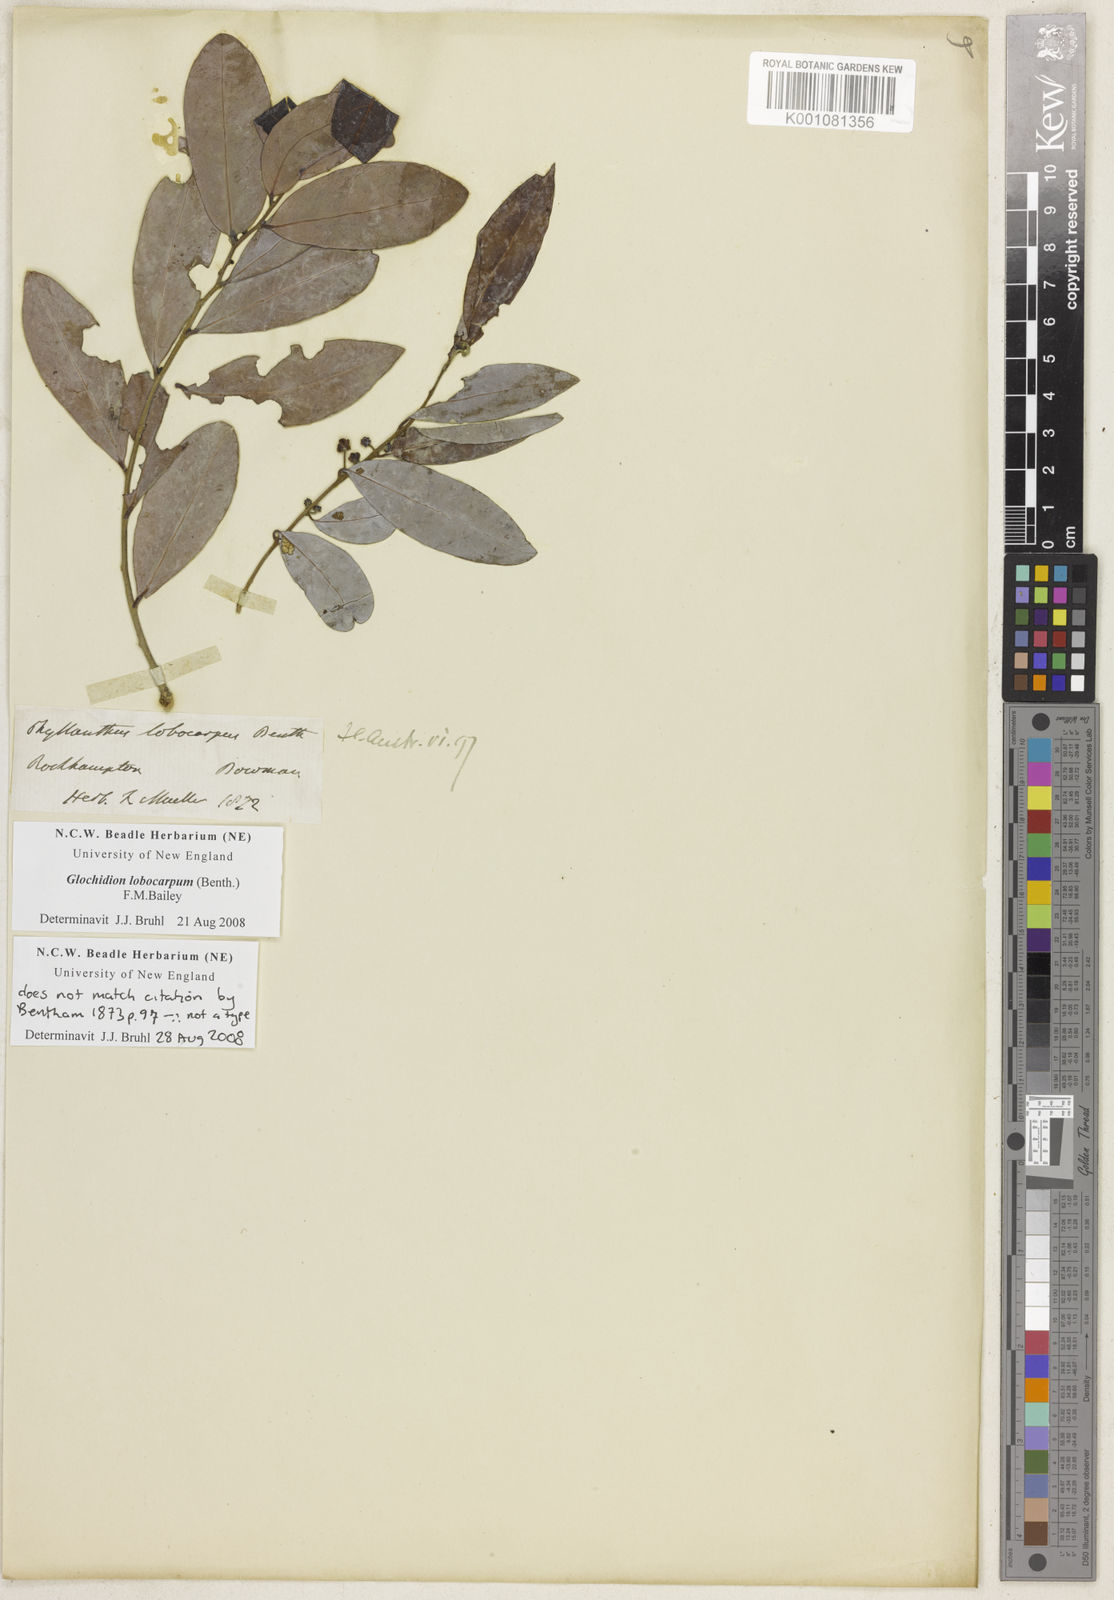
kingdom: Plantae
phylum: Tracheophyta
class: Magnoliopsida
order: Malpighiales
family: Phyllanthaceae
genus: Glochidion
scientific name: Glochidion lobocarpum
